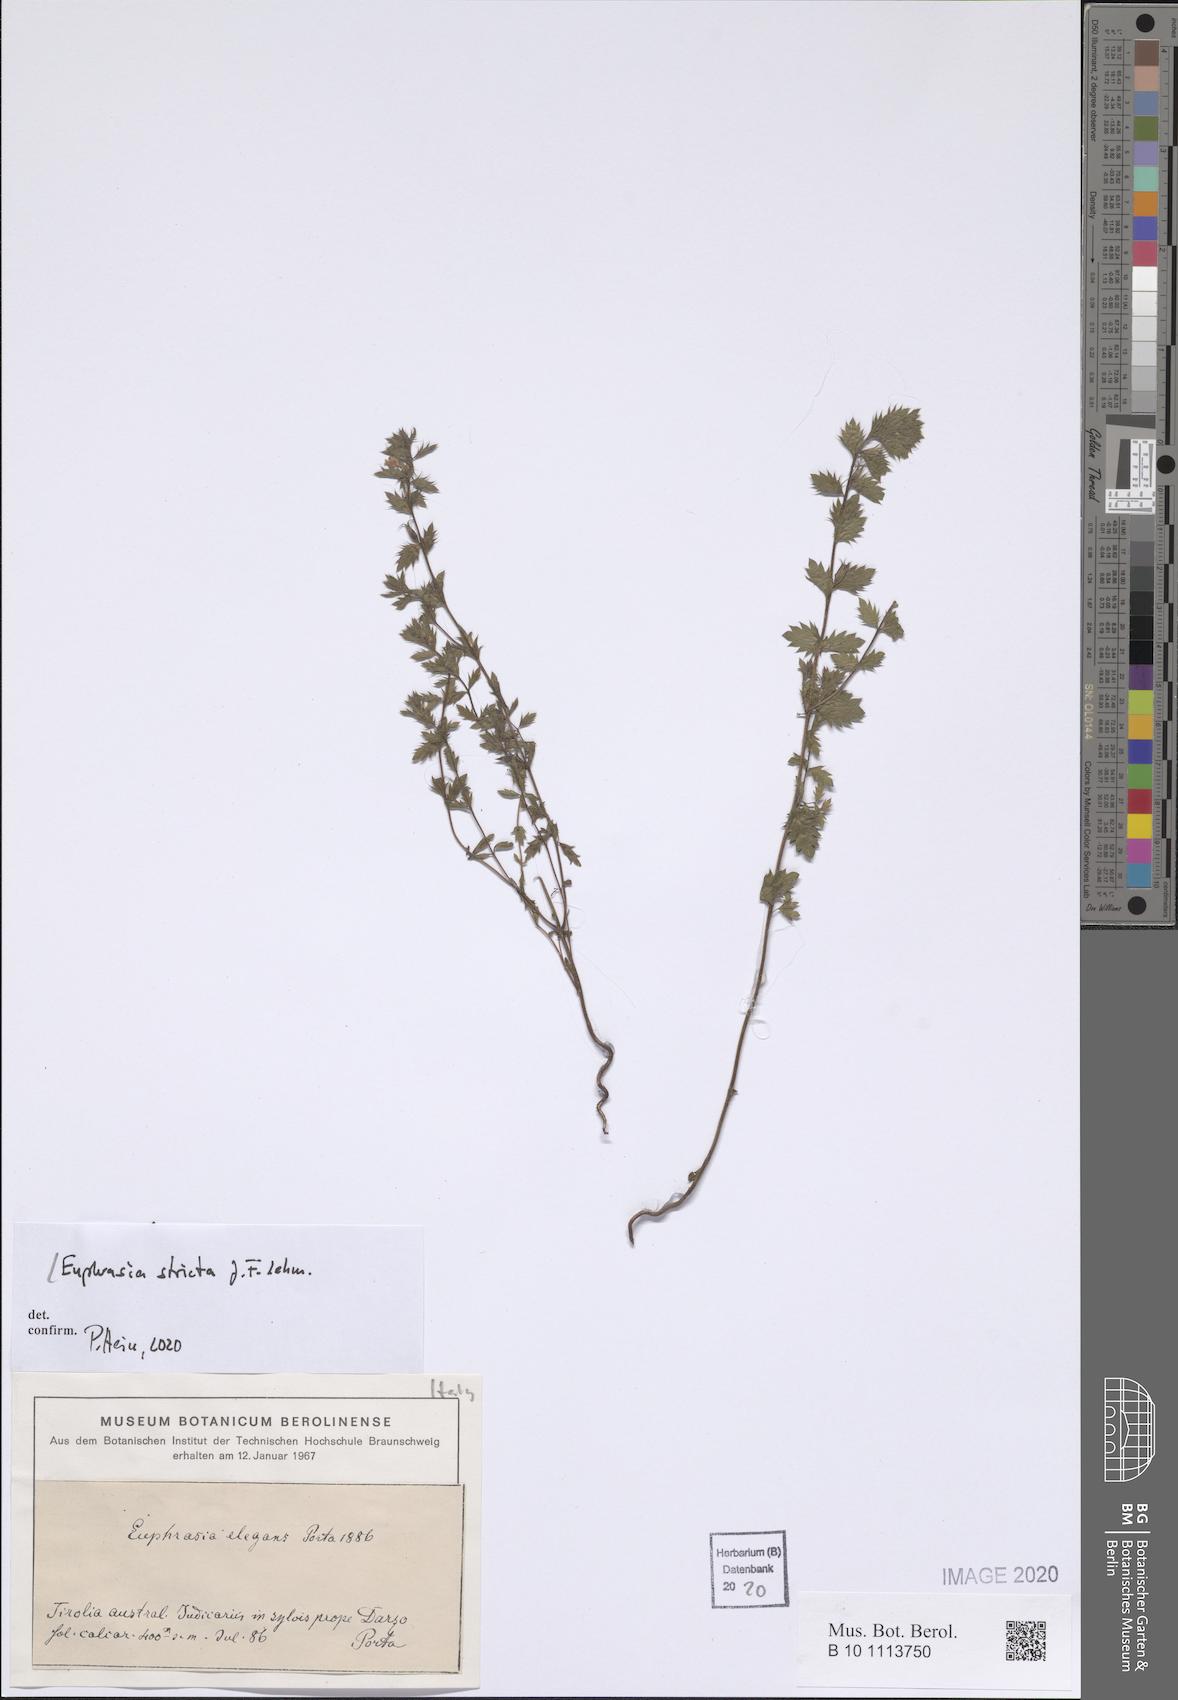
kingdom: Plantae
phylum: Tracheophyta
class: Magnoliopsida
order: Lamiales
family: Orobanchaceae
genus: Euphrasia
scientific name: Euphrasia stricta
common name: Drug eyebright
